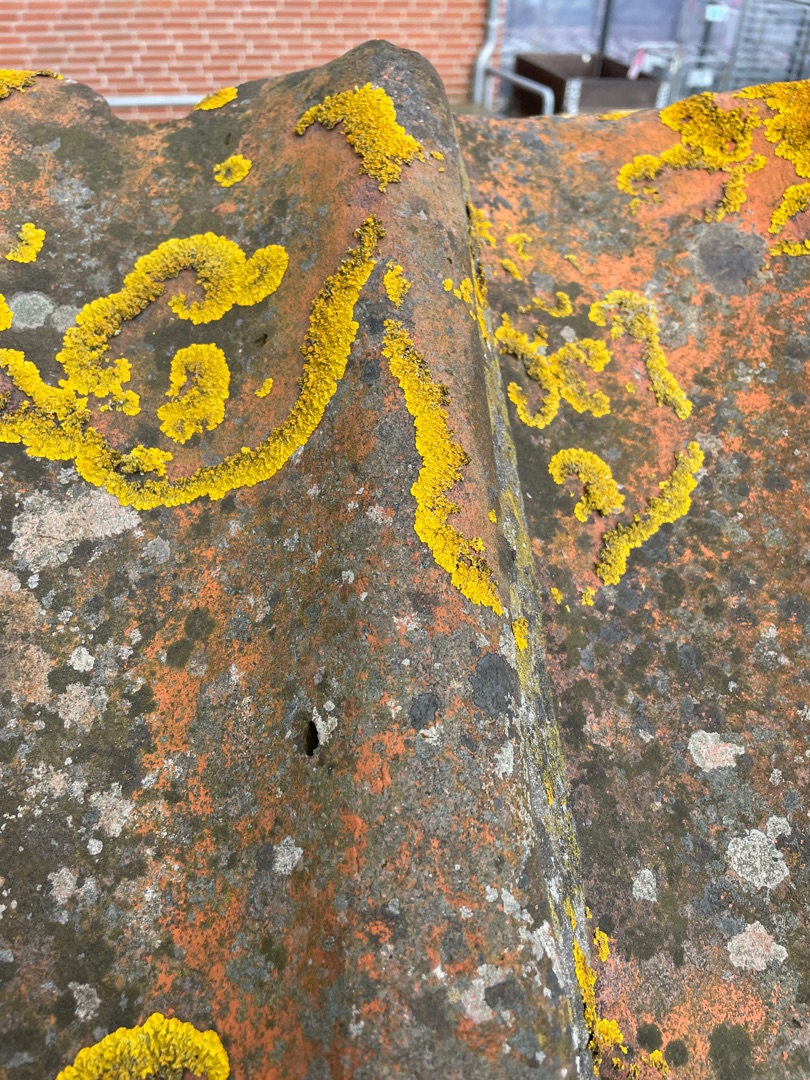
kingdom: Fungi
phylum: Ascomycota
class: Lecanoromycetes
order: Teloschistales
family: Teloschistaceae
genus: Xanthoria
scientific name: Xanthoria parietina
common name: Almindelig væggelav
